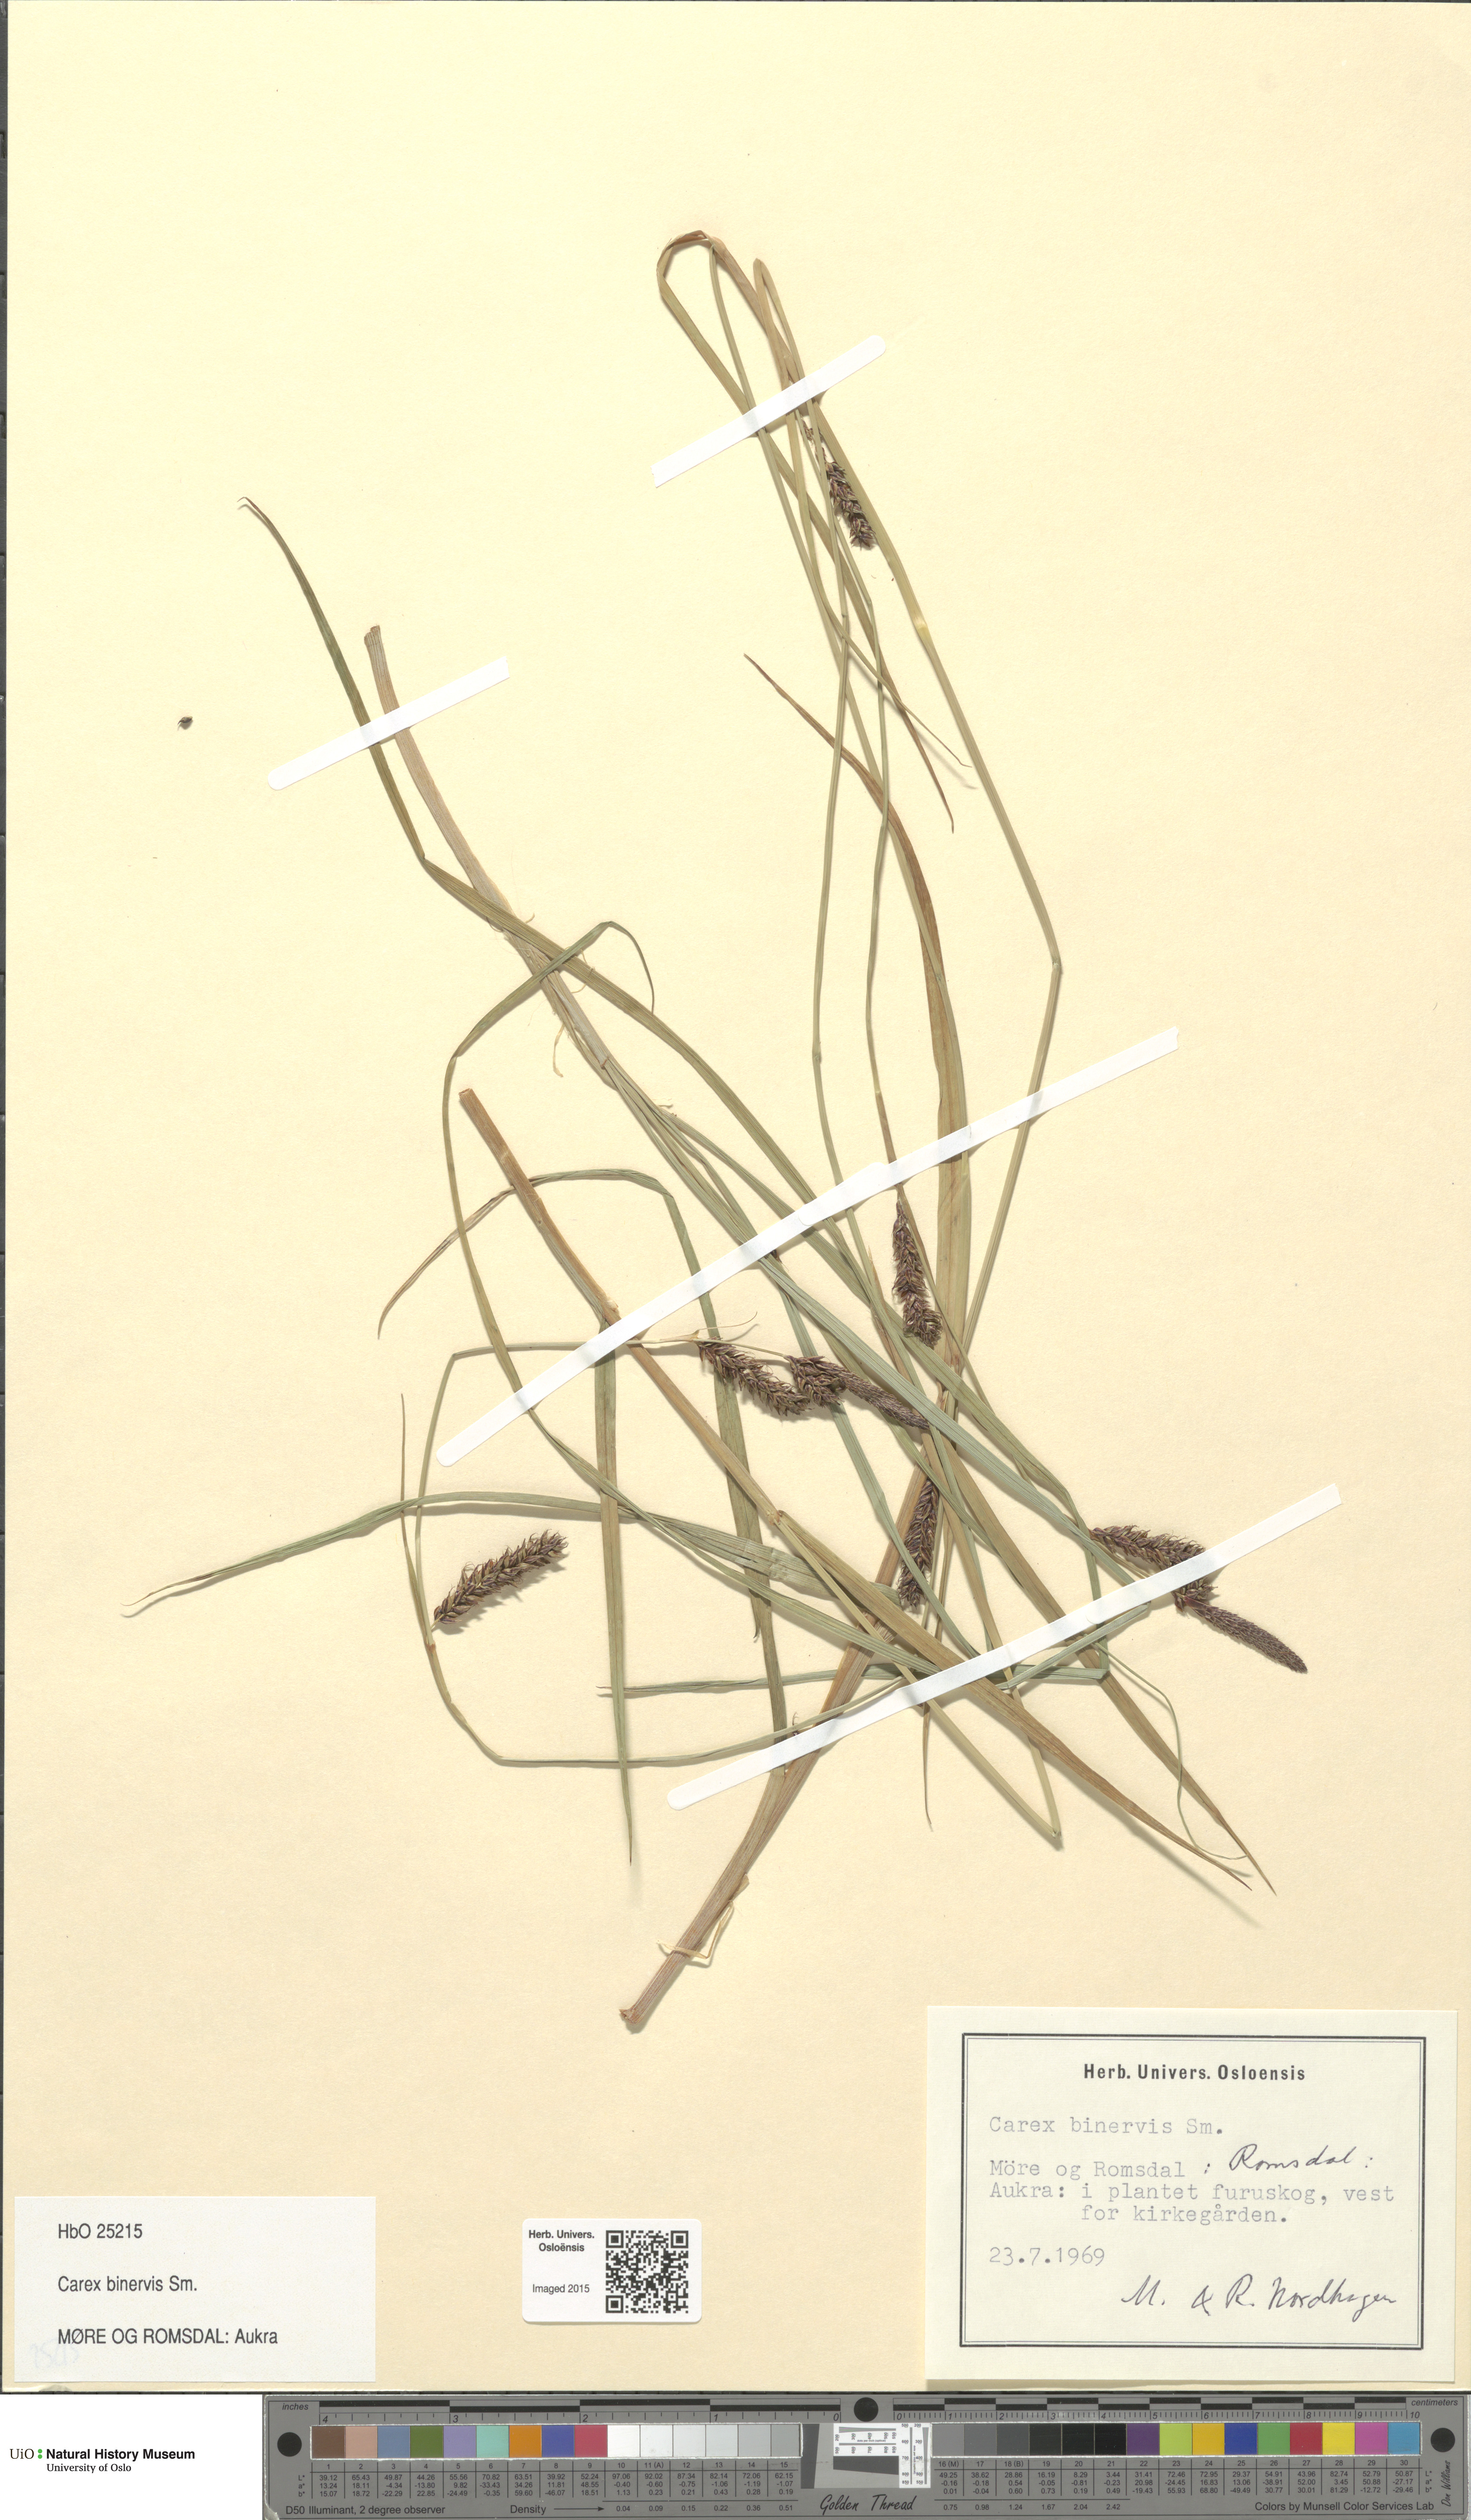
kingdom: Plantae
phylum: Tracheophyta
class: Liliopsida
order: Poales
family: Cyperaceae
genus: Carex
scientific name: Carex binervis
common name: Green-ribbed sedge
